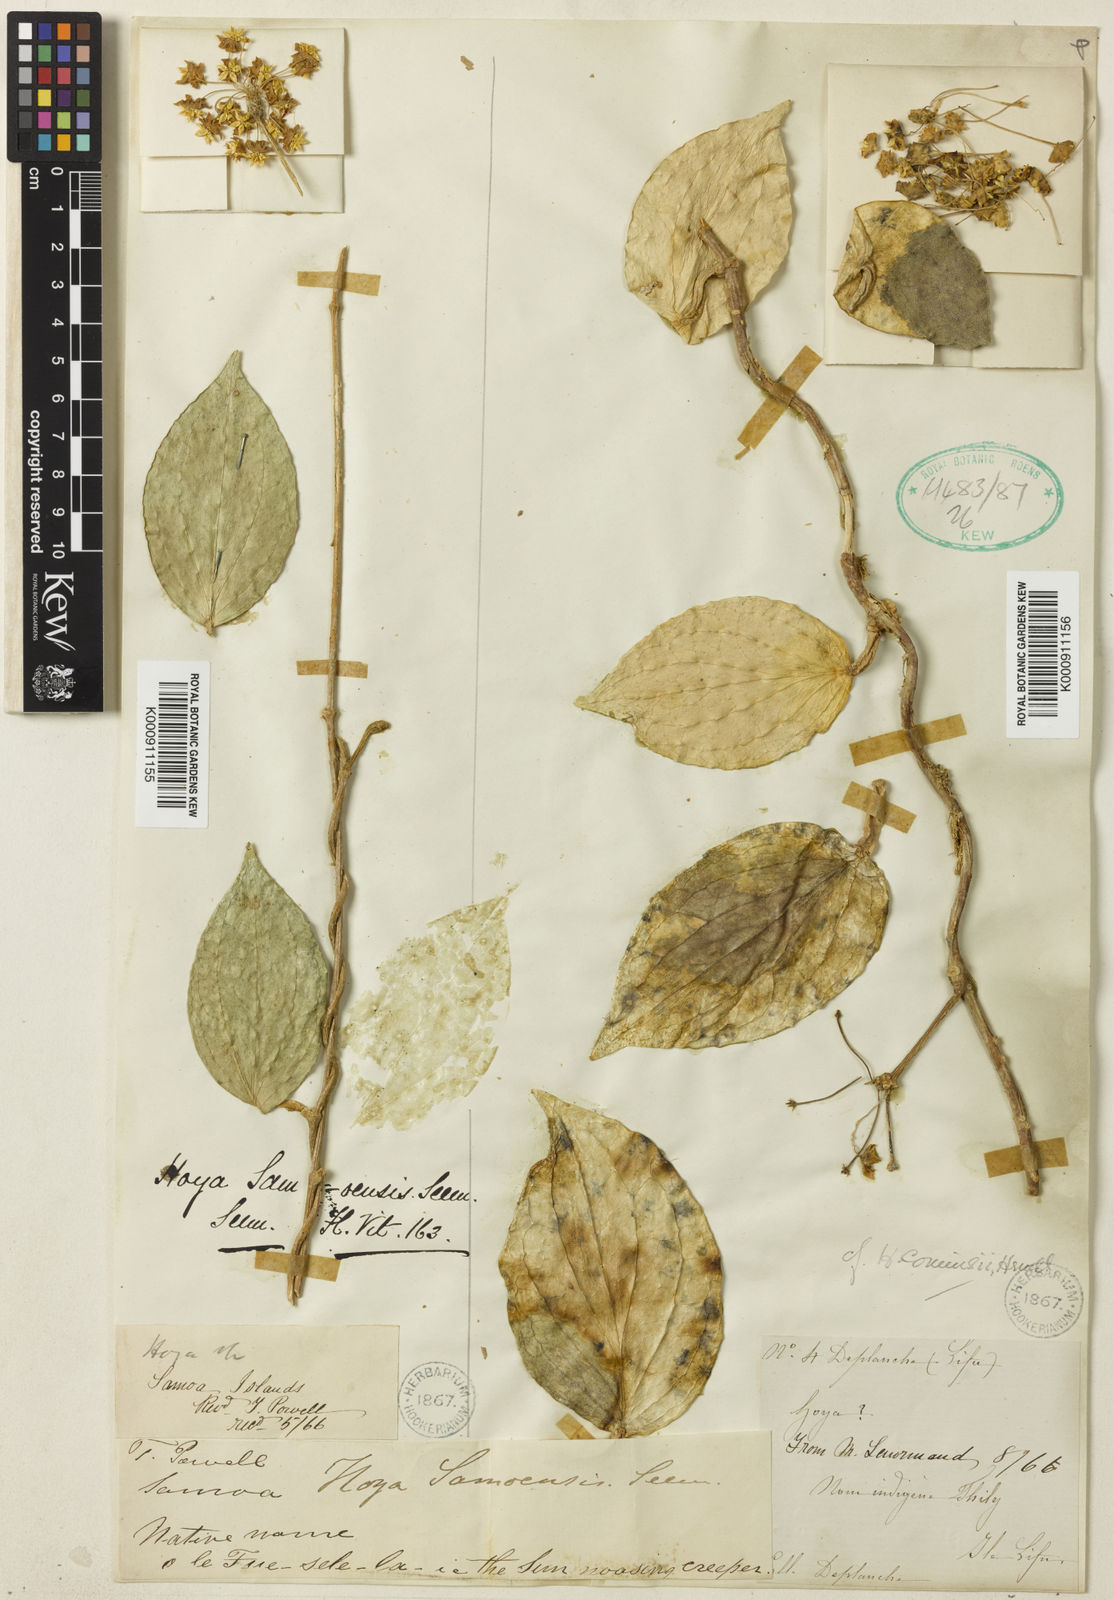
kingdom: Plantae
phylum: Tracheophyta
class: Magnoliopsida
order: Gentianales
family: Apocynaceae
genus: Hoya
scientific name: Hoya nicholsoniae
